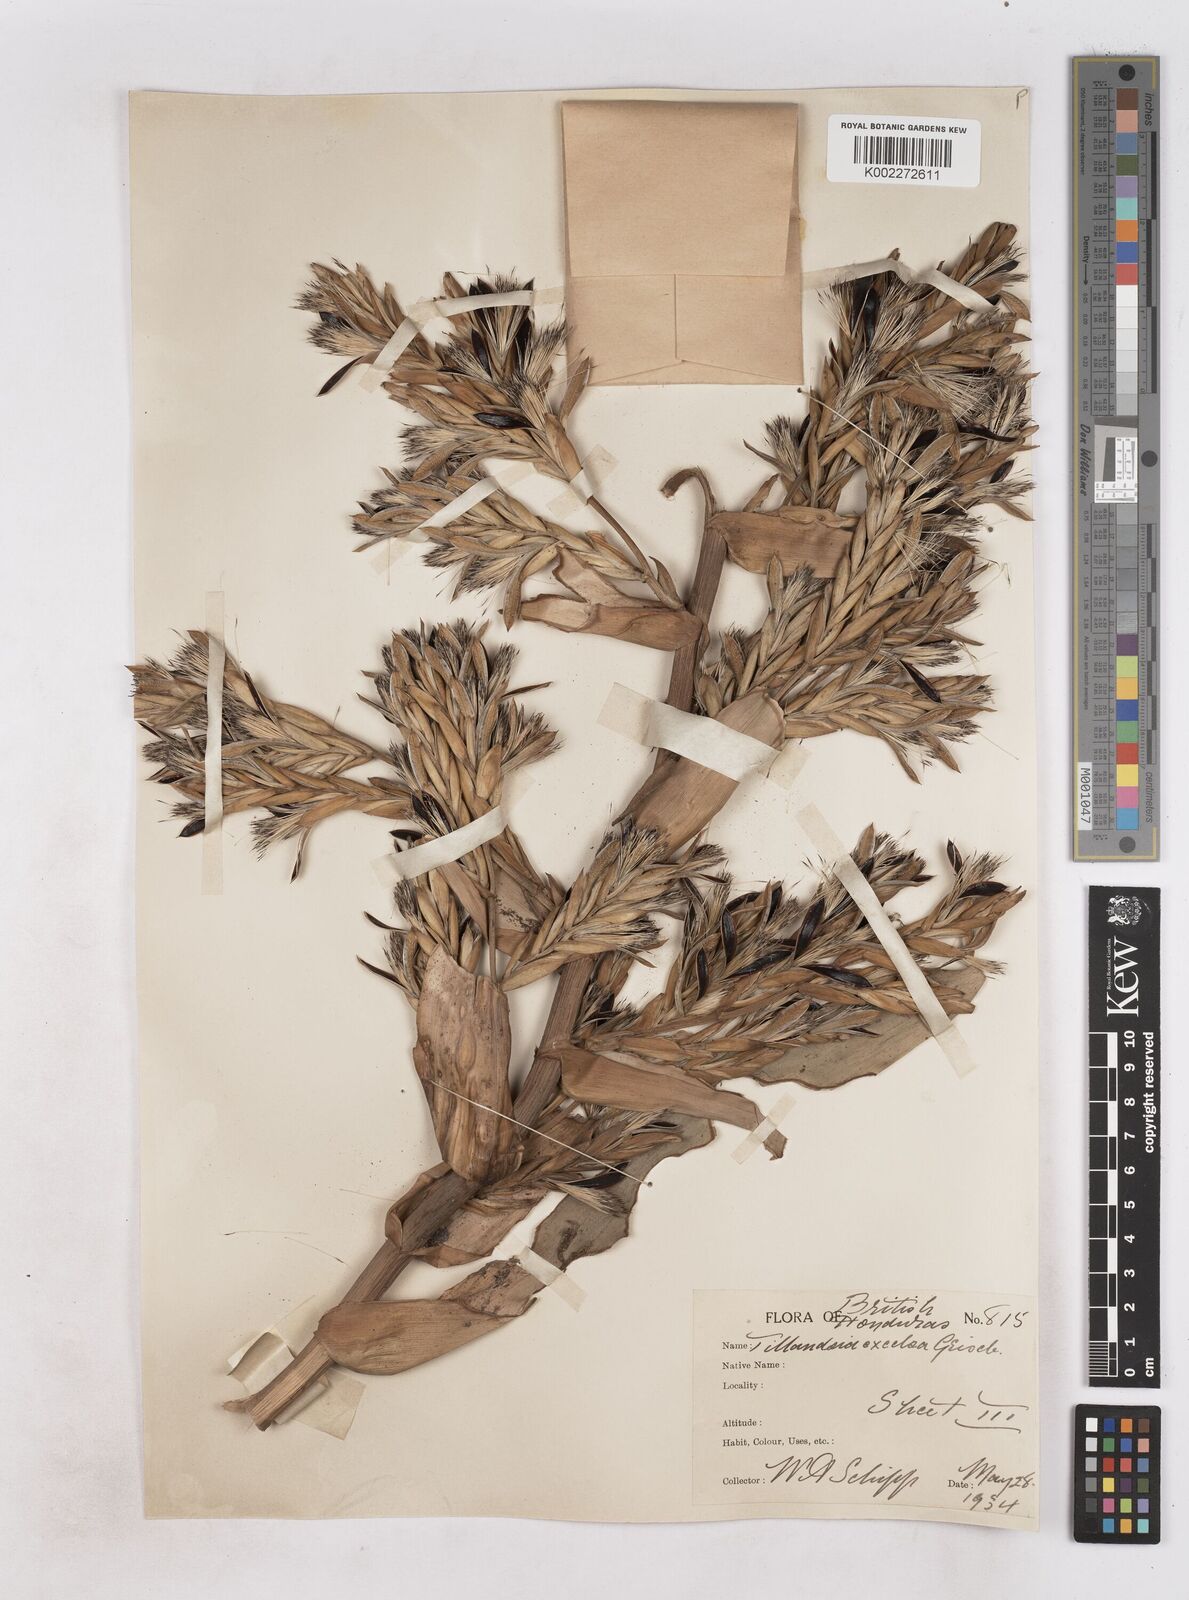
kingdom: Plantae
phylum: Tracheophyta
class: Liliopsida
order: Poales
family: Bromeliaceae
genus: Tillandsia
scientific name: Tillandsia excelsa
